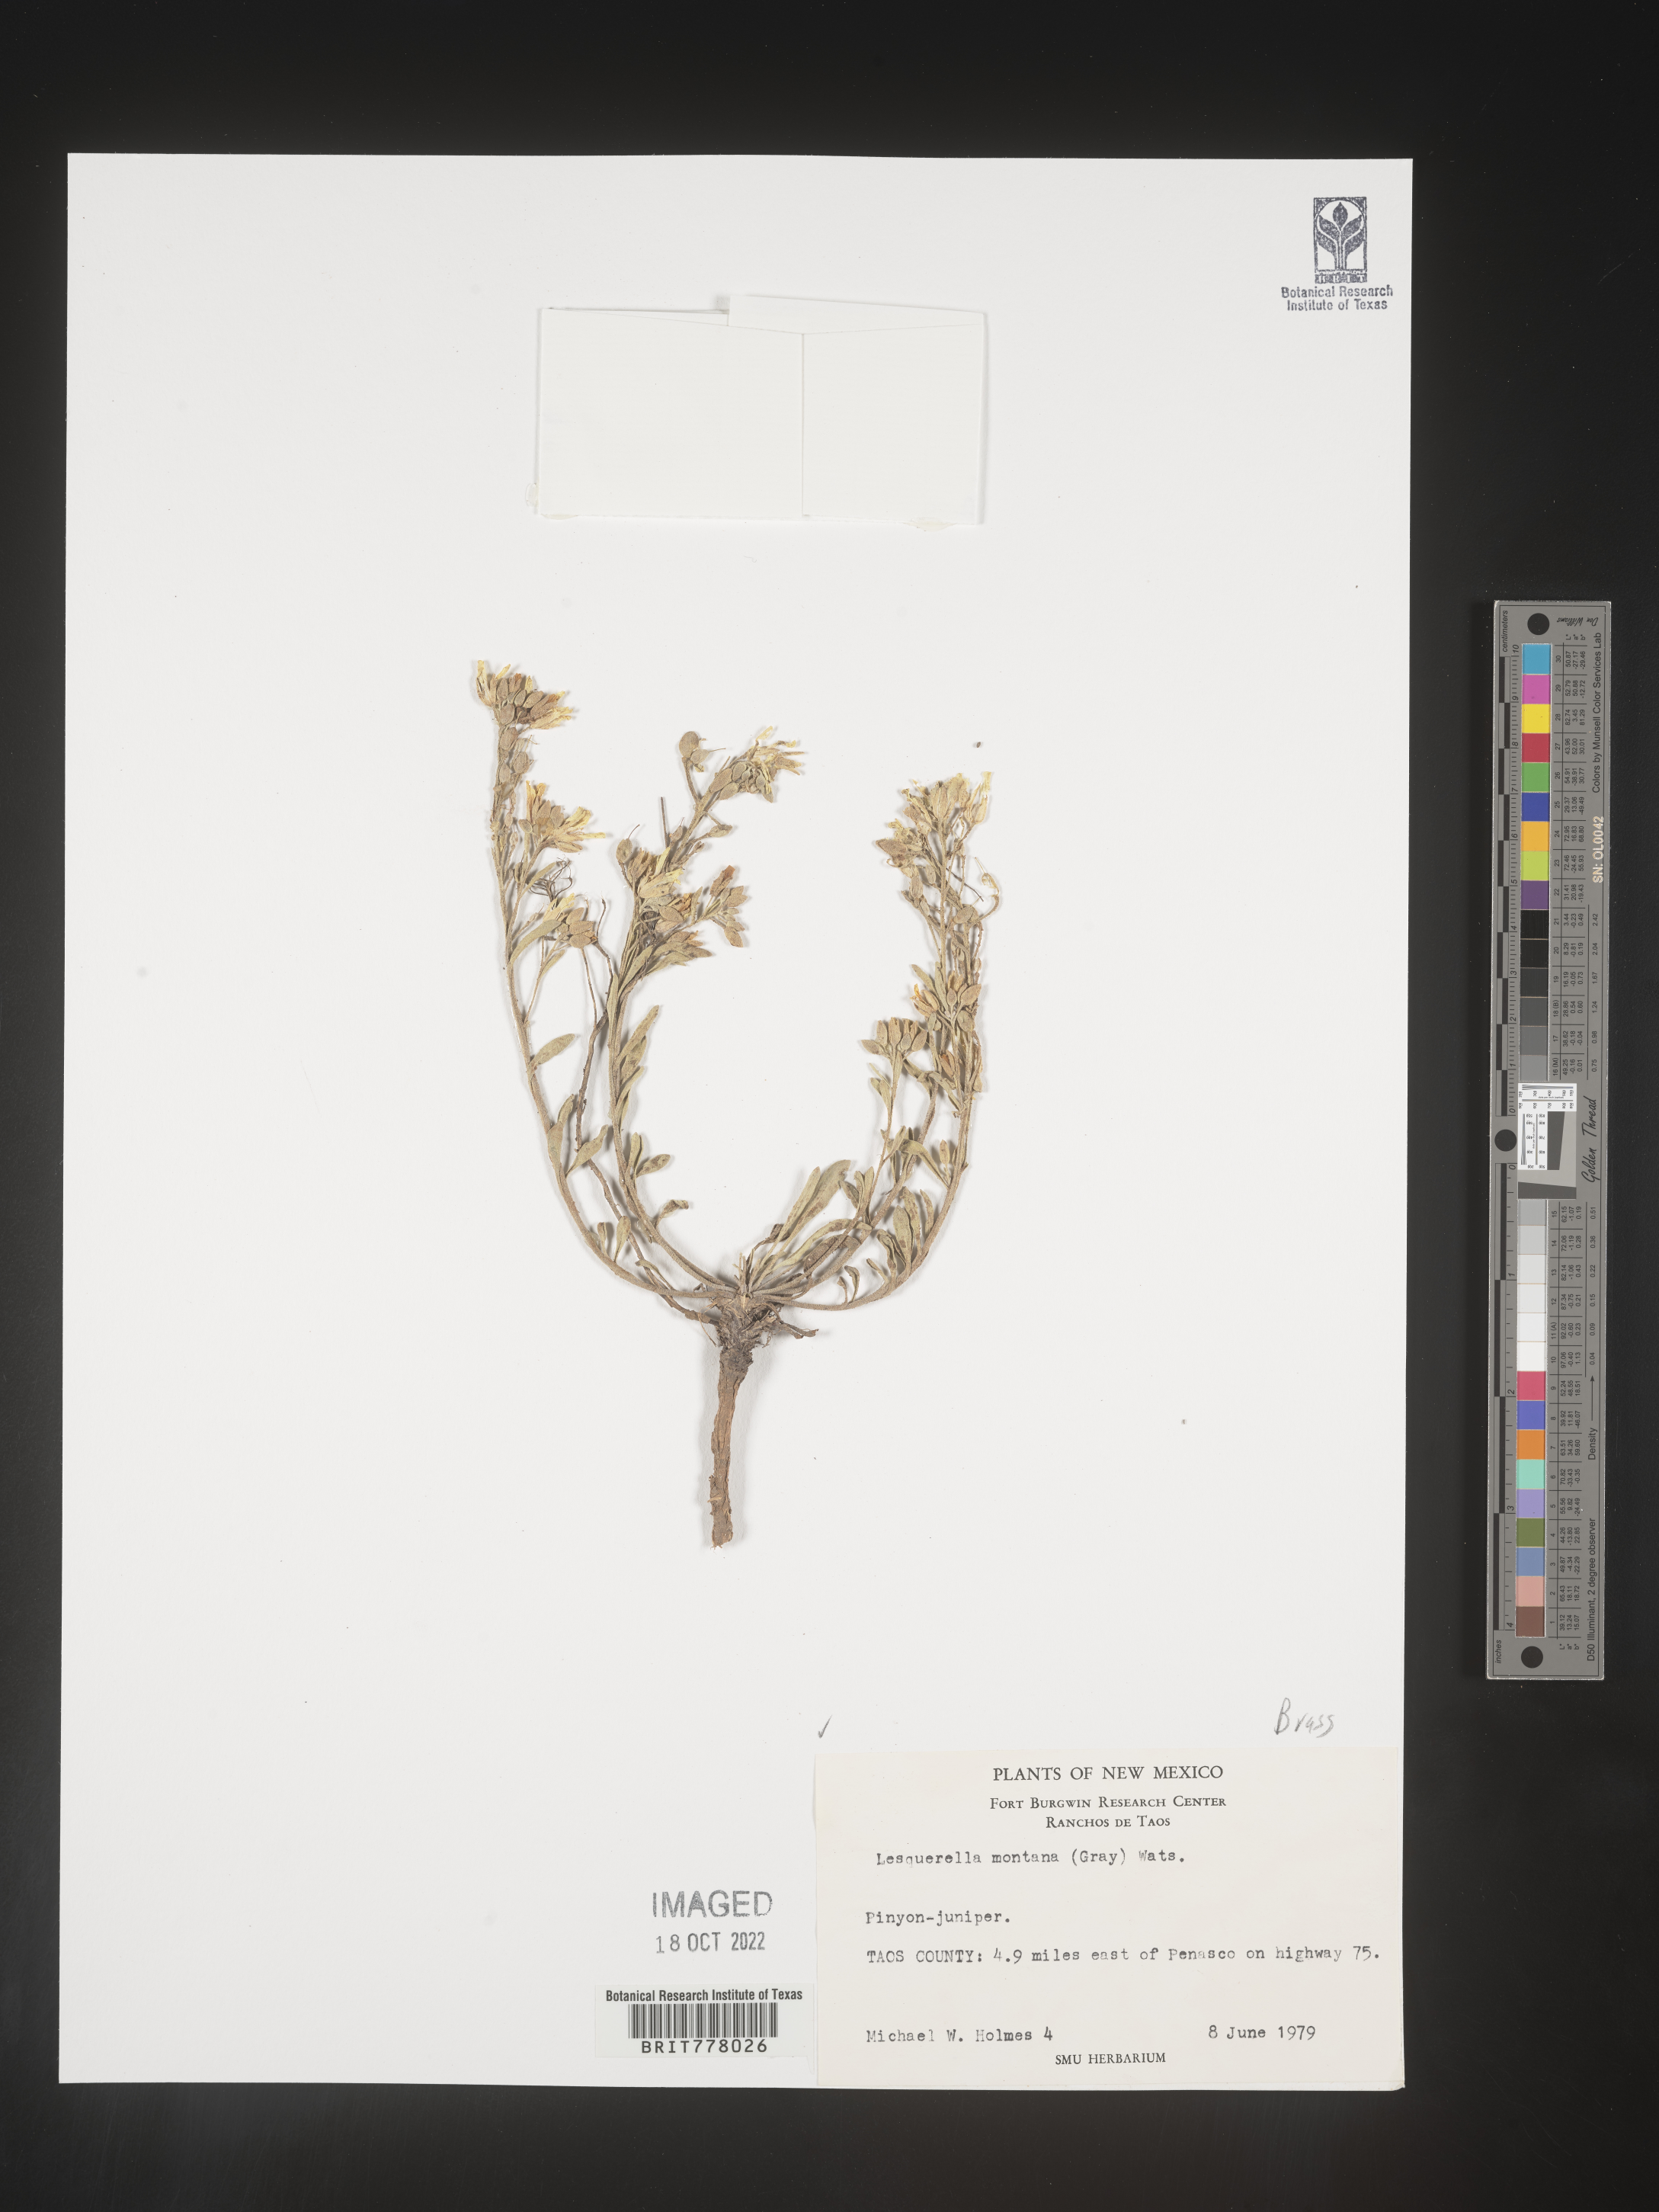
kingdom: Chromista
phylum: Cercozoa
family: Psammonobiotidae
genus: Lesquerella
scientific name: Lesquerella
